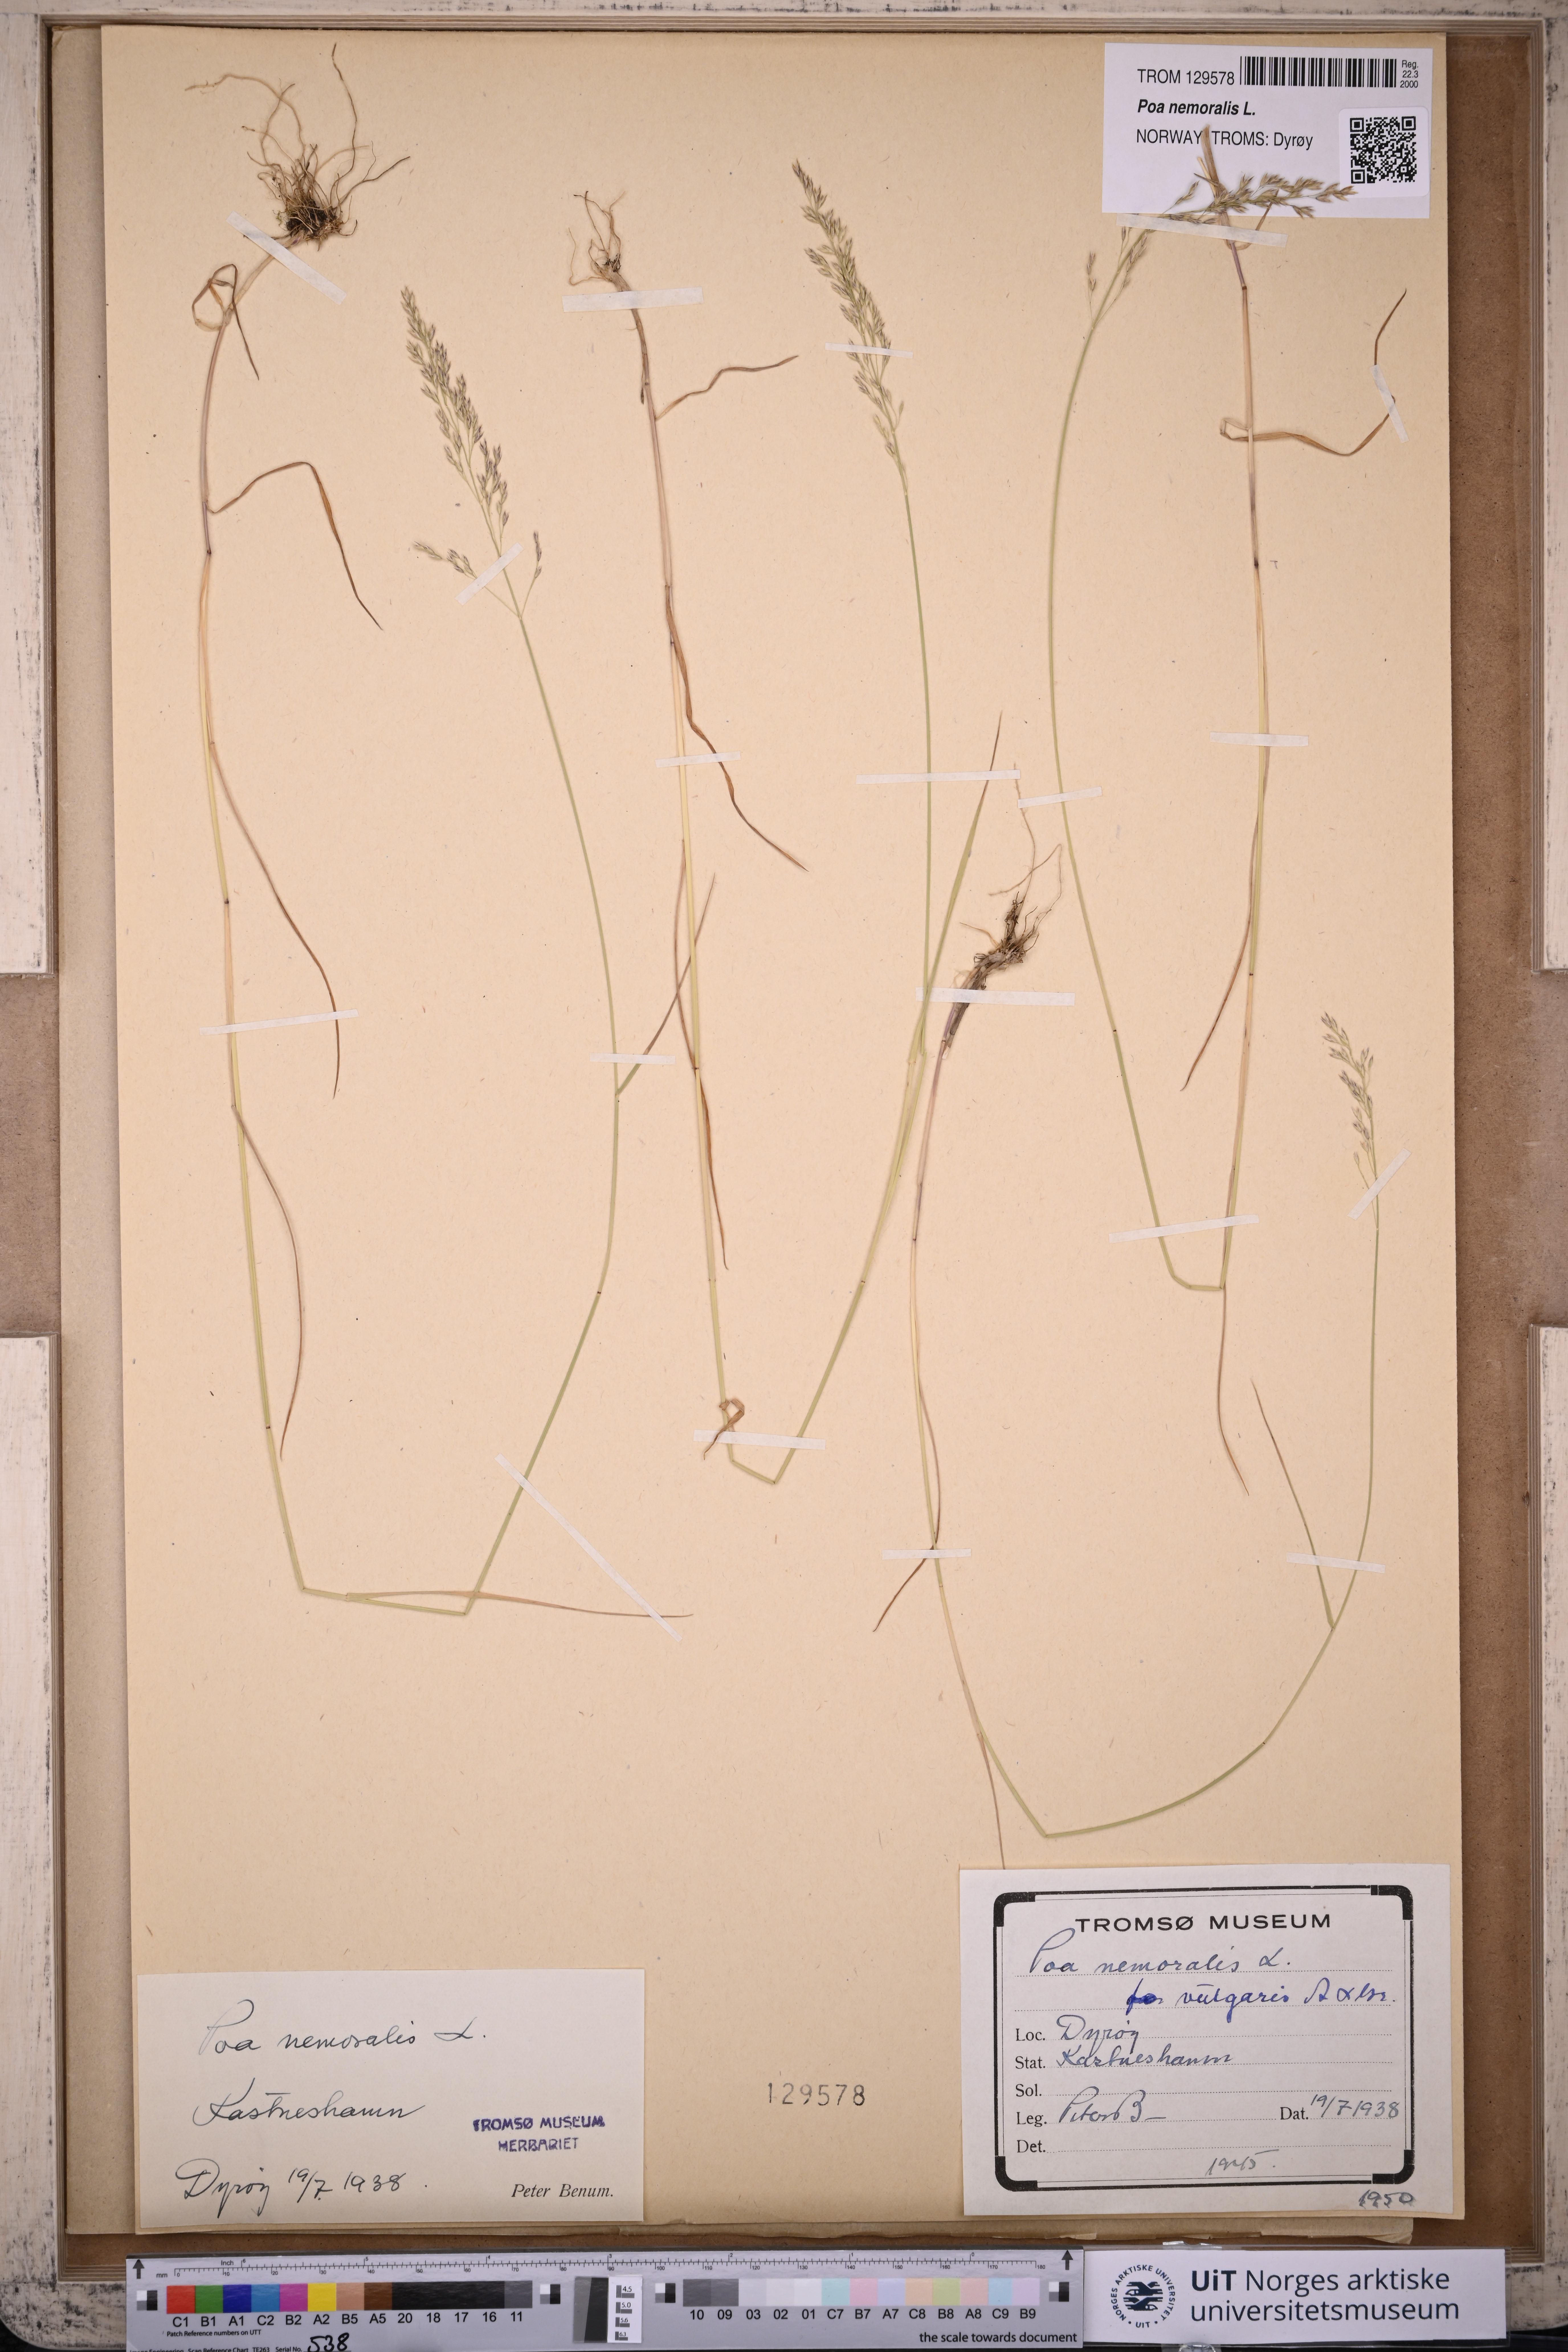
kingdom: Plantae
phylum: Tracheophyta
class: Liliopsida
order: Poales
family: Poaceae
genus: Poa
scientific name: Poa nemoralis
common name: Wood bluegrass
